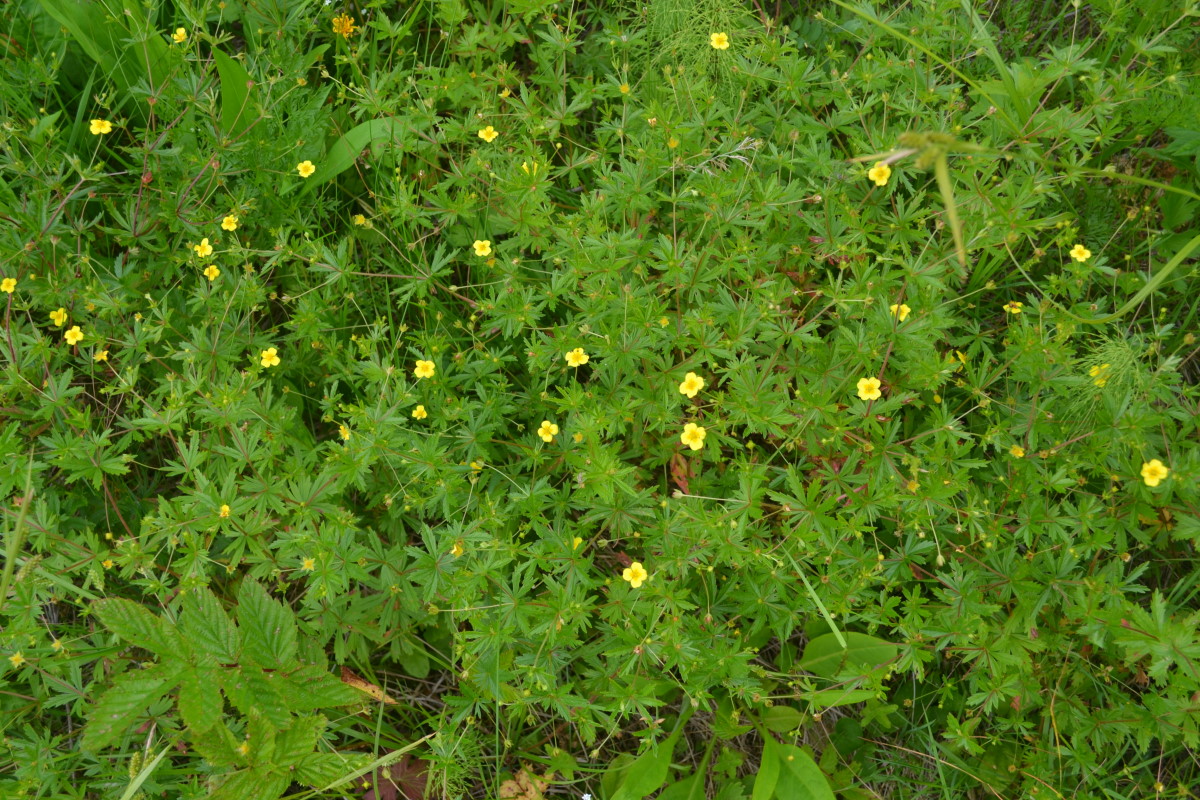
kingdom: Plantae
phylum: Tracheophyta
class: Magnoliopsida
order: Rosales
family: Rosaceae
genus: Potentilla
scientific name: Potentilla erecta
